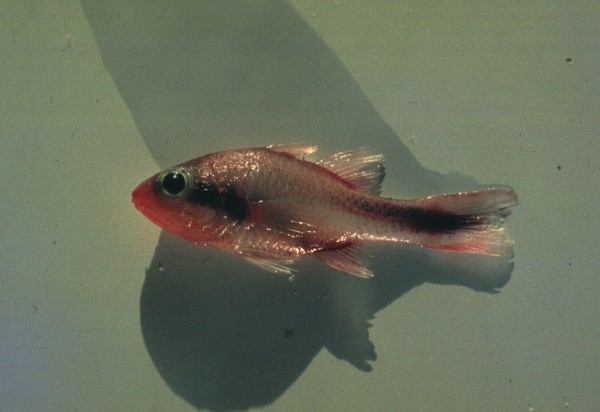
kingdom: Animalia
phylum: Chordata
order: Perciformes
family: Apogonidae
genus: Apogon
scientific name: Apogon semiornatus
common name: Threeband cardinalfish
